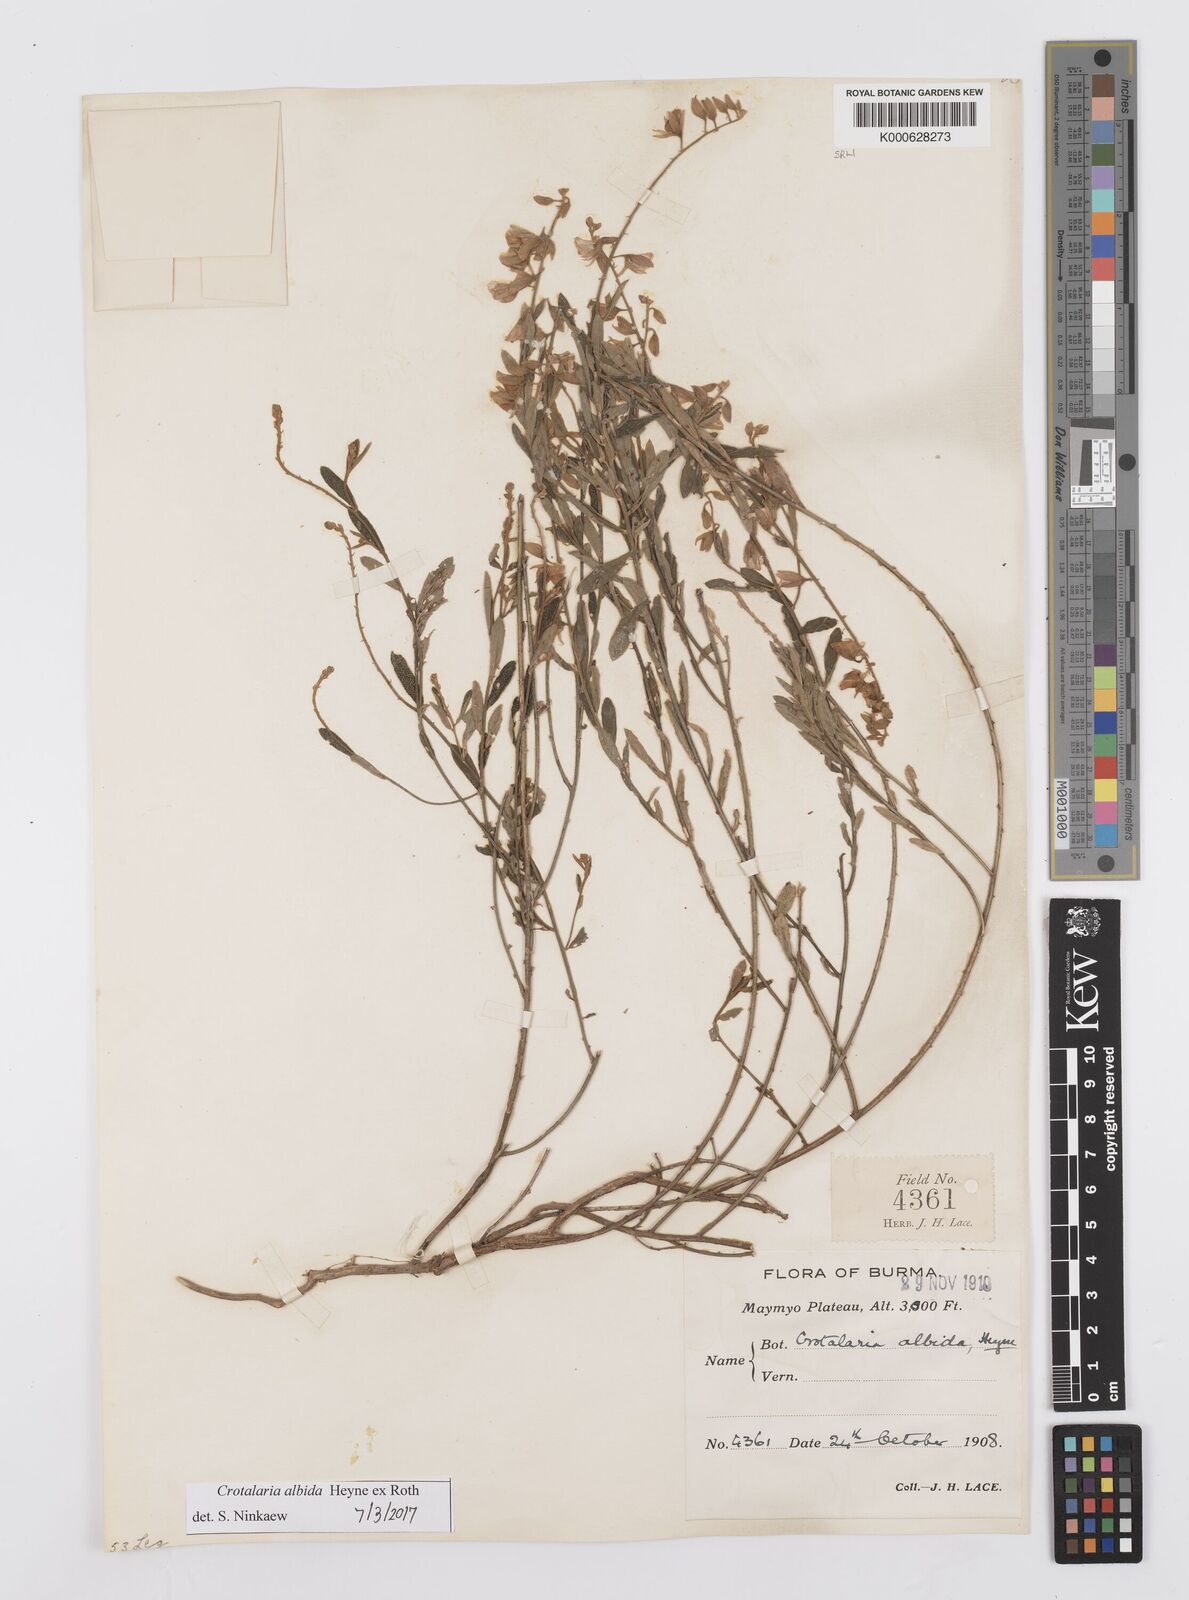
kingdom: Plantae
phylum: Tracheophyta
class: Magnoliopsida
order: Fabales
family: Fabaceae
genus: Crotalaria
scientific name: Crotalaria albida
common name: Taiwan crotalaria
